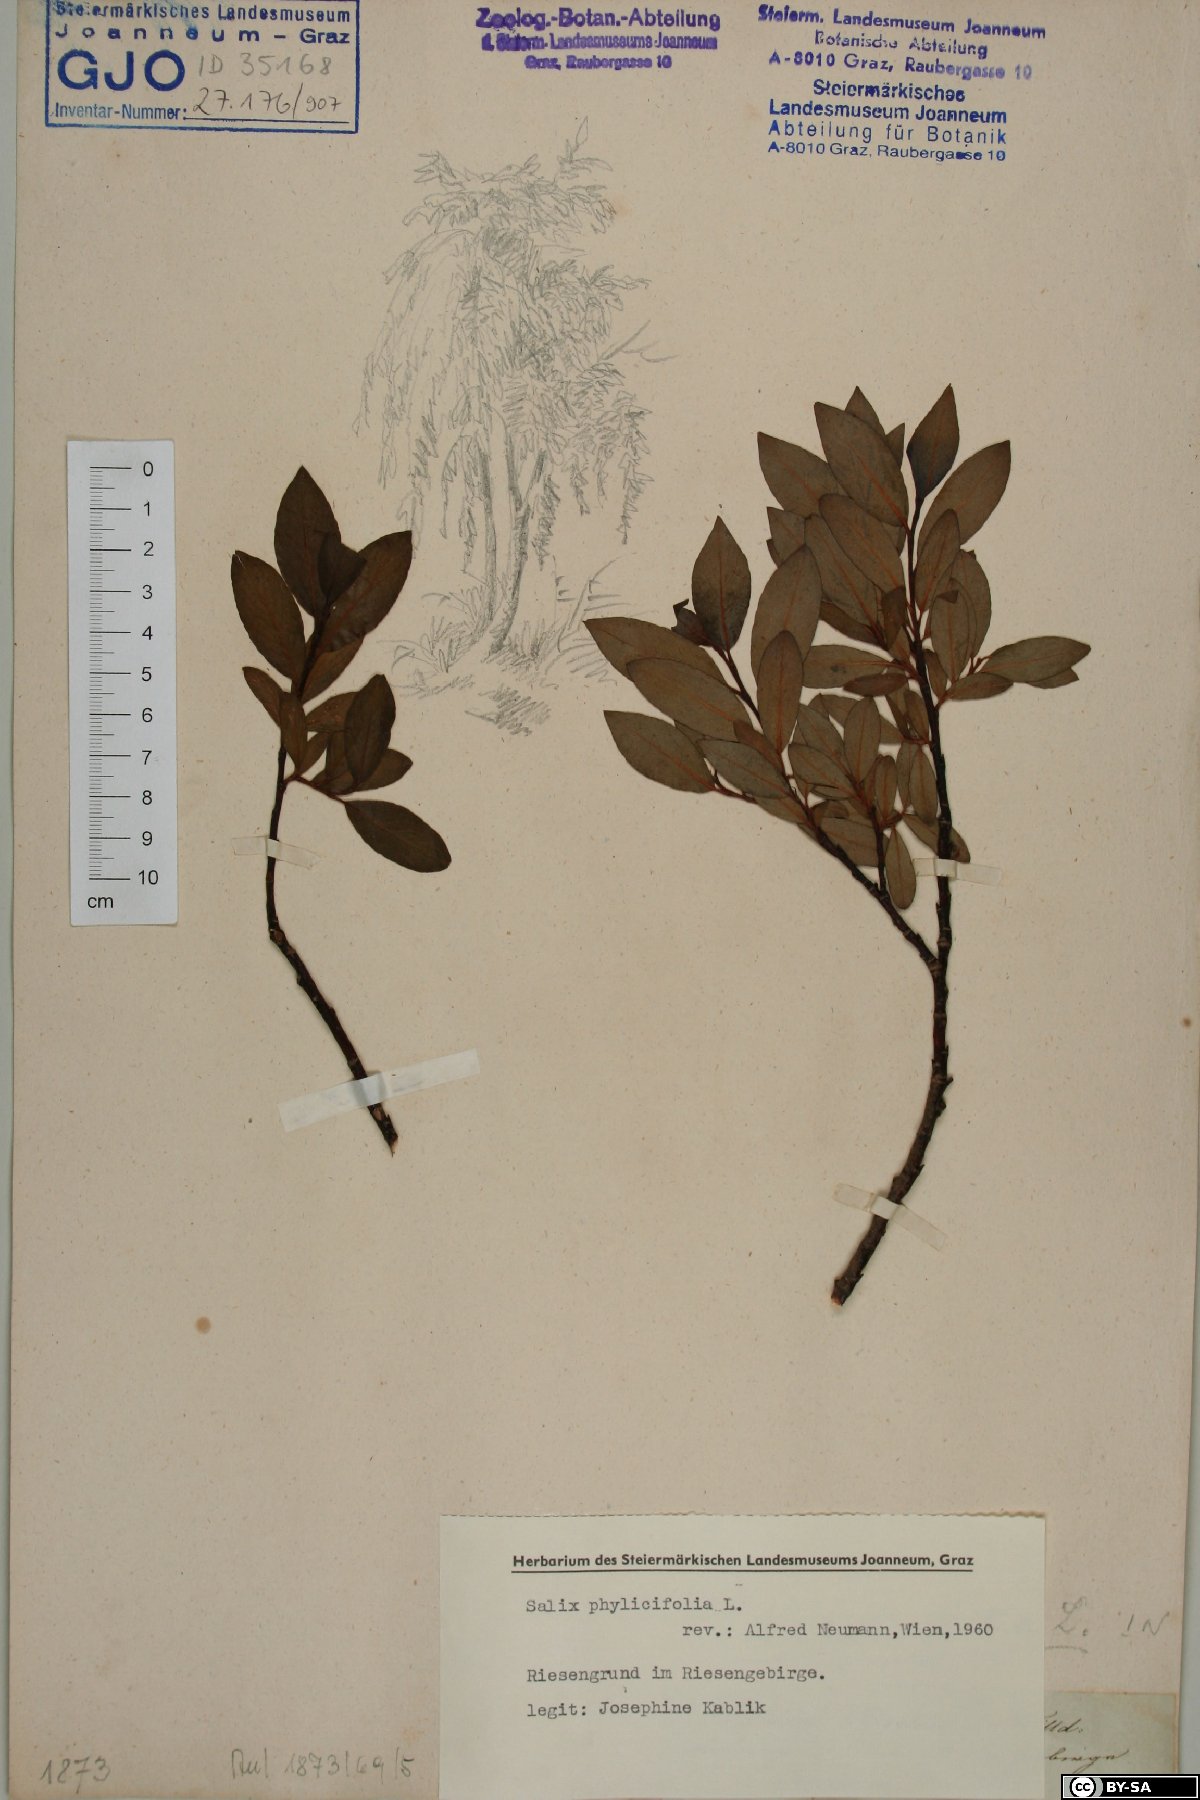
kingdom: Plantae
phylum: Tracheophyta
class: Magnoliopsida
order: Malpighiales
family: Salicaceae
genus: Salix
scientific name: Salix phylicifolia
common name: Tea-leaved willow
